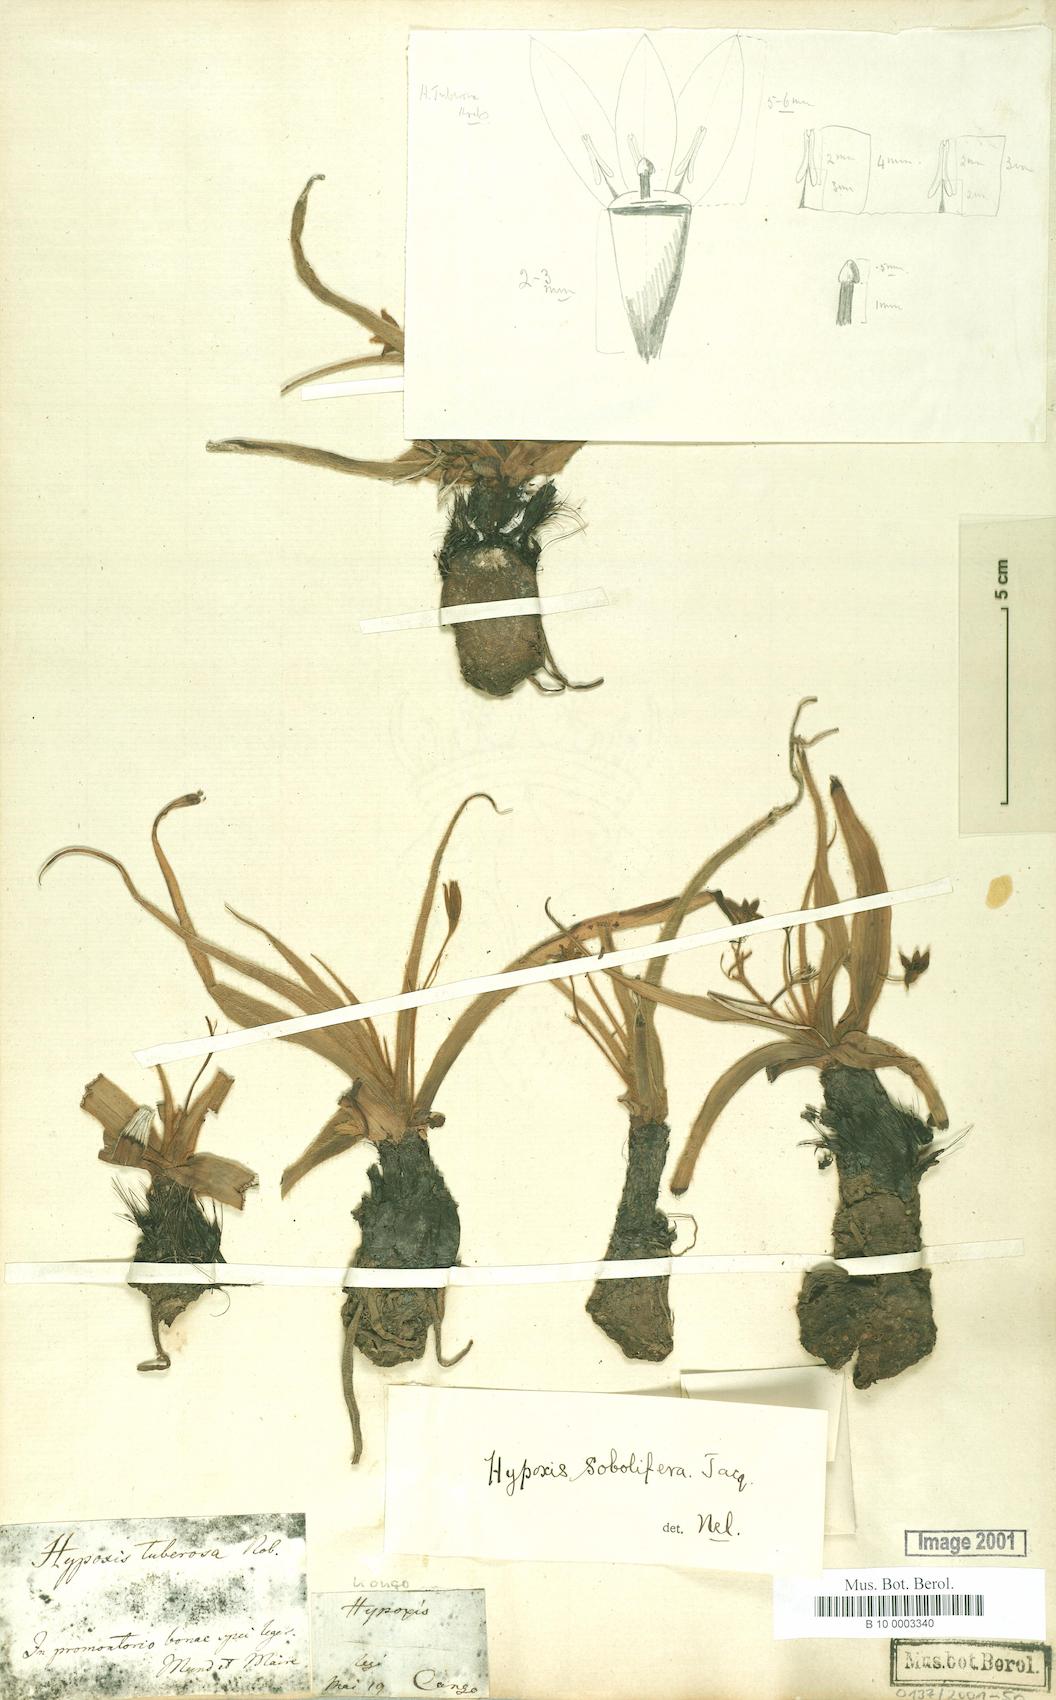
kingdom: Plantae
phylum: Tracheophyta
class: Liliopsida
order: Asparagales
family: Hypoxidaceae
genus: Hypoxis
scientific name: Hypoxis sobolifera
